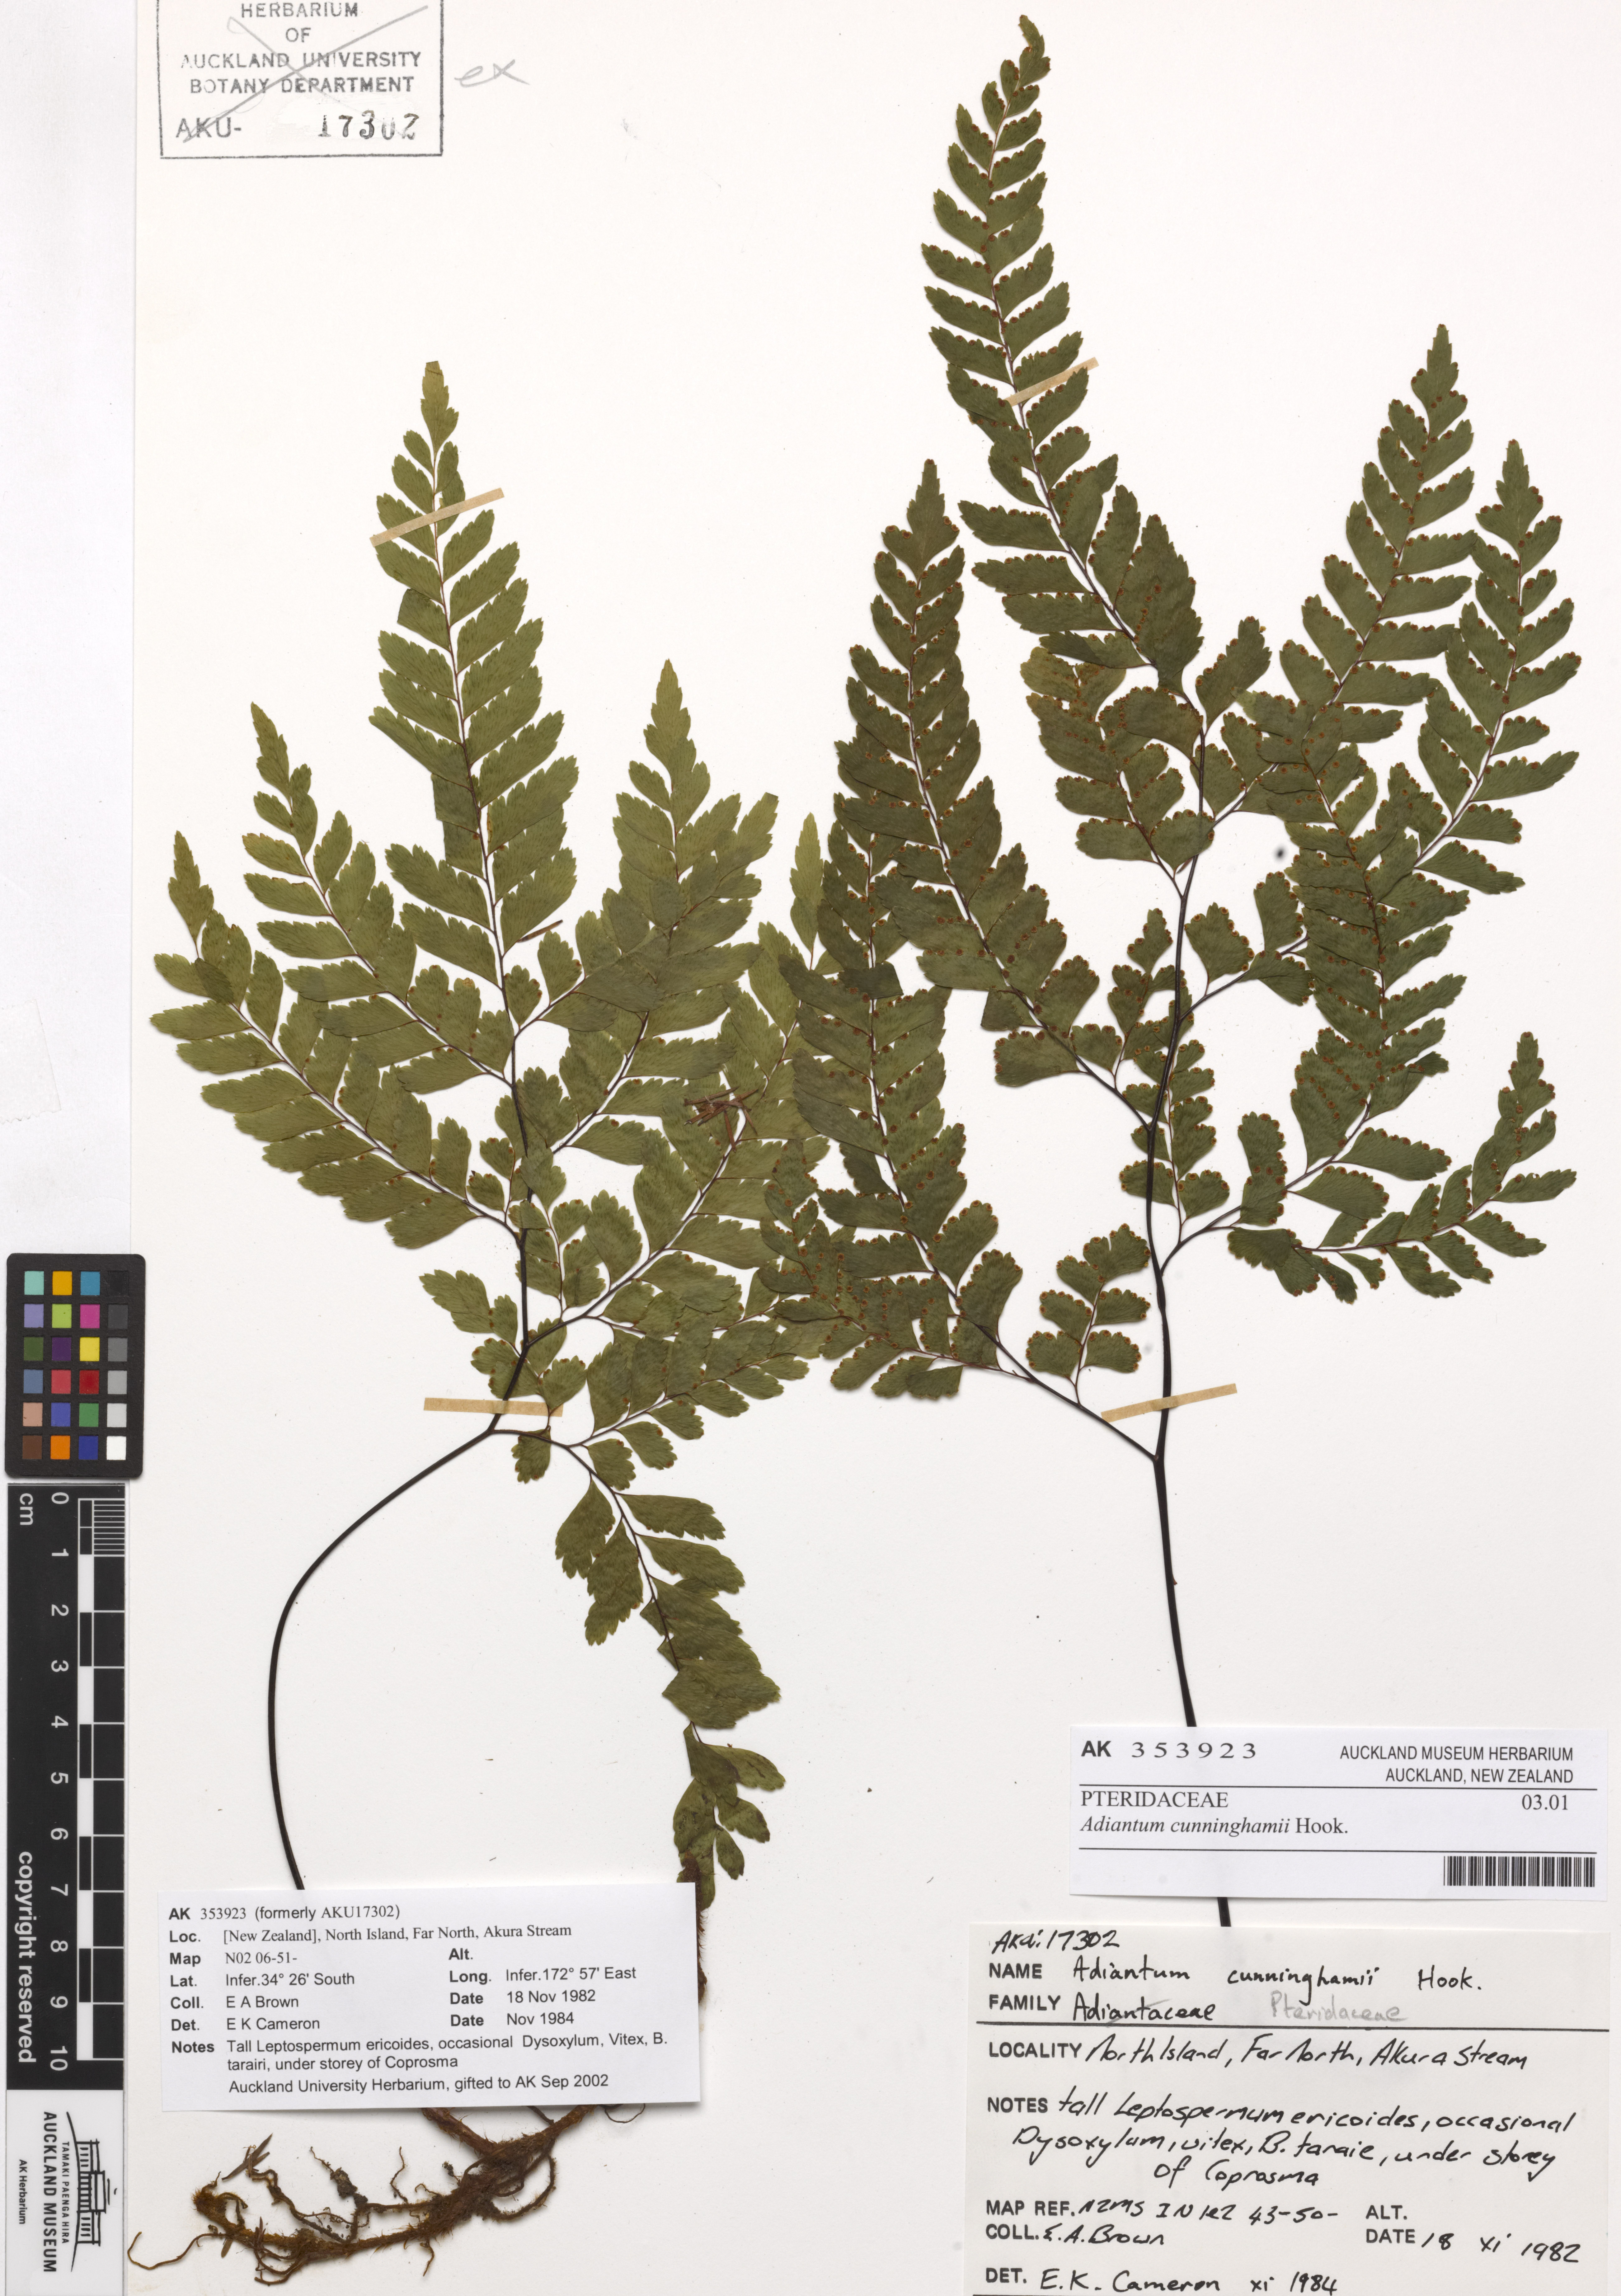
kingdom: Plantae
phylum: Tracheophyta
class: Polypodiopsida
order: Polypodiales
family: Pteridaceae
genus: Adiantum
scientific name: Adiantum viridescens
